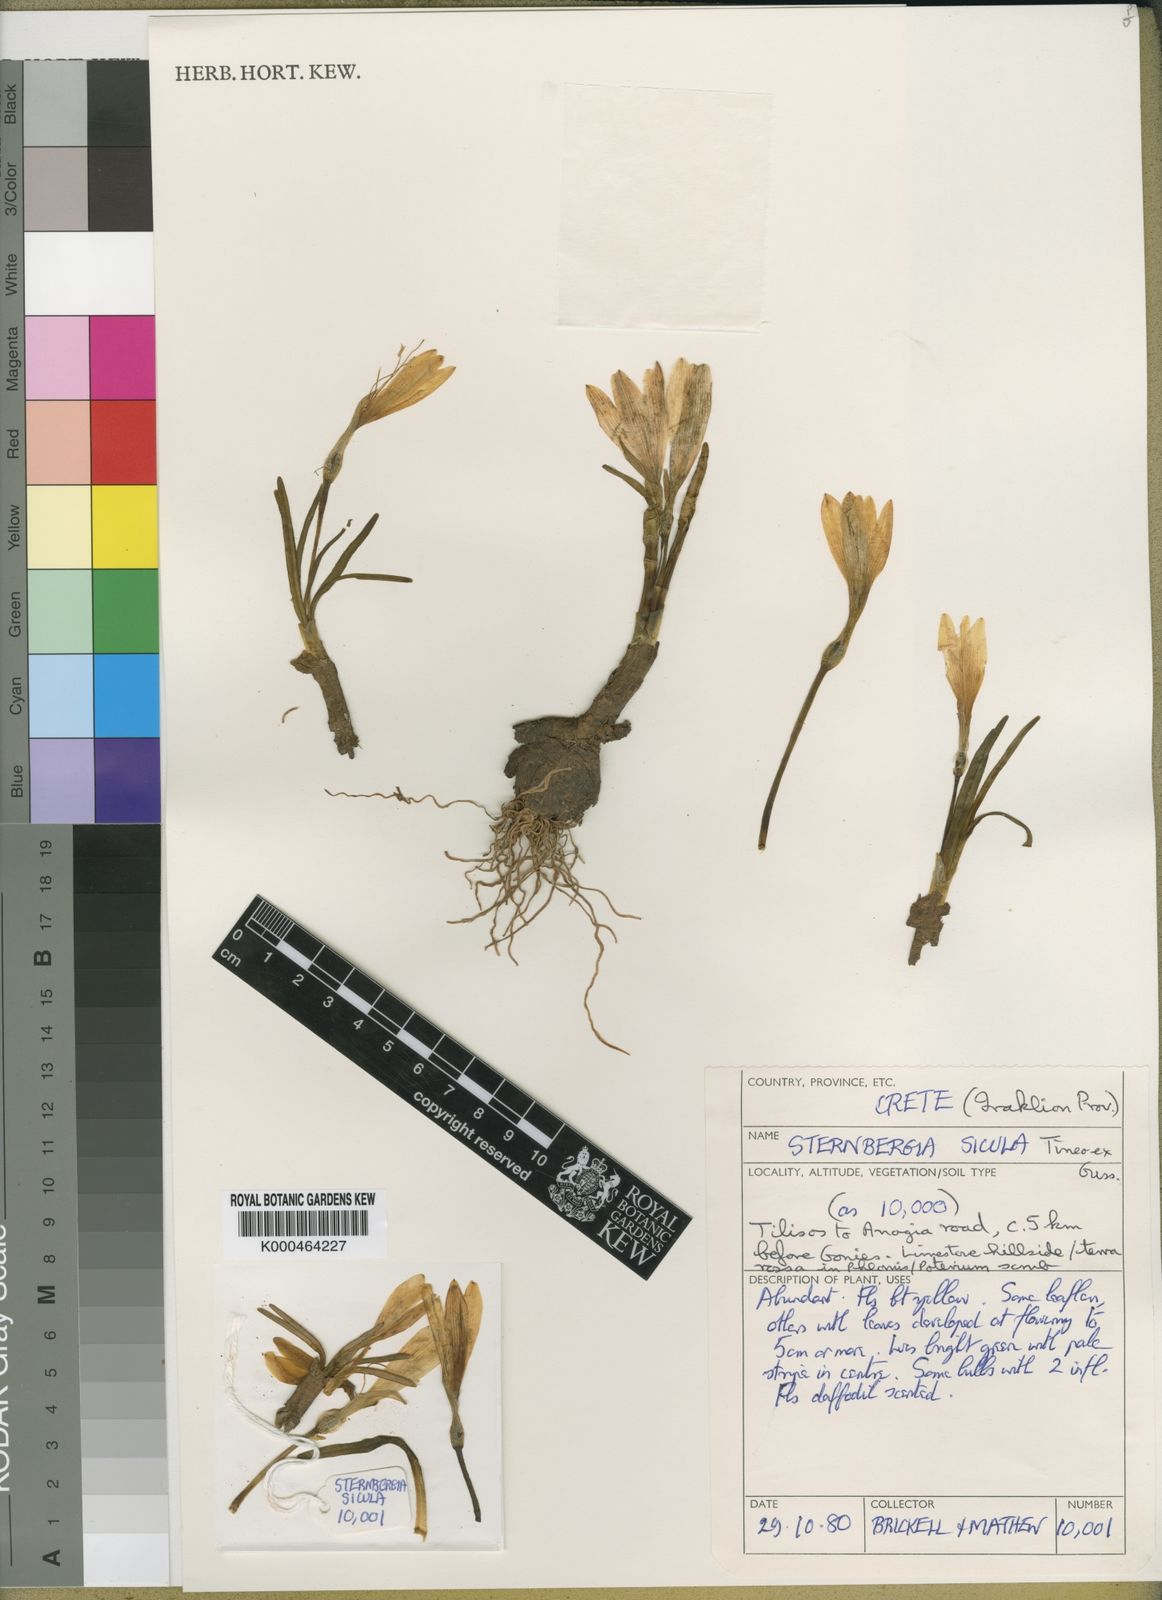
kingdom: Plantae
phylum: Tracheophyta
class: Liliopsida
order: Asparagales
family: Amaryllidaceae
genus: Sternbergia
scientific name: Sternbergia
